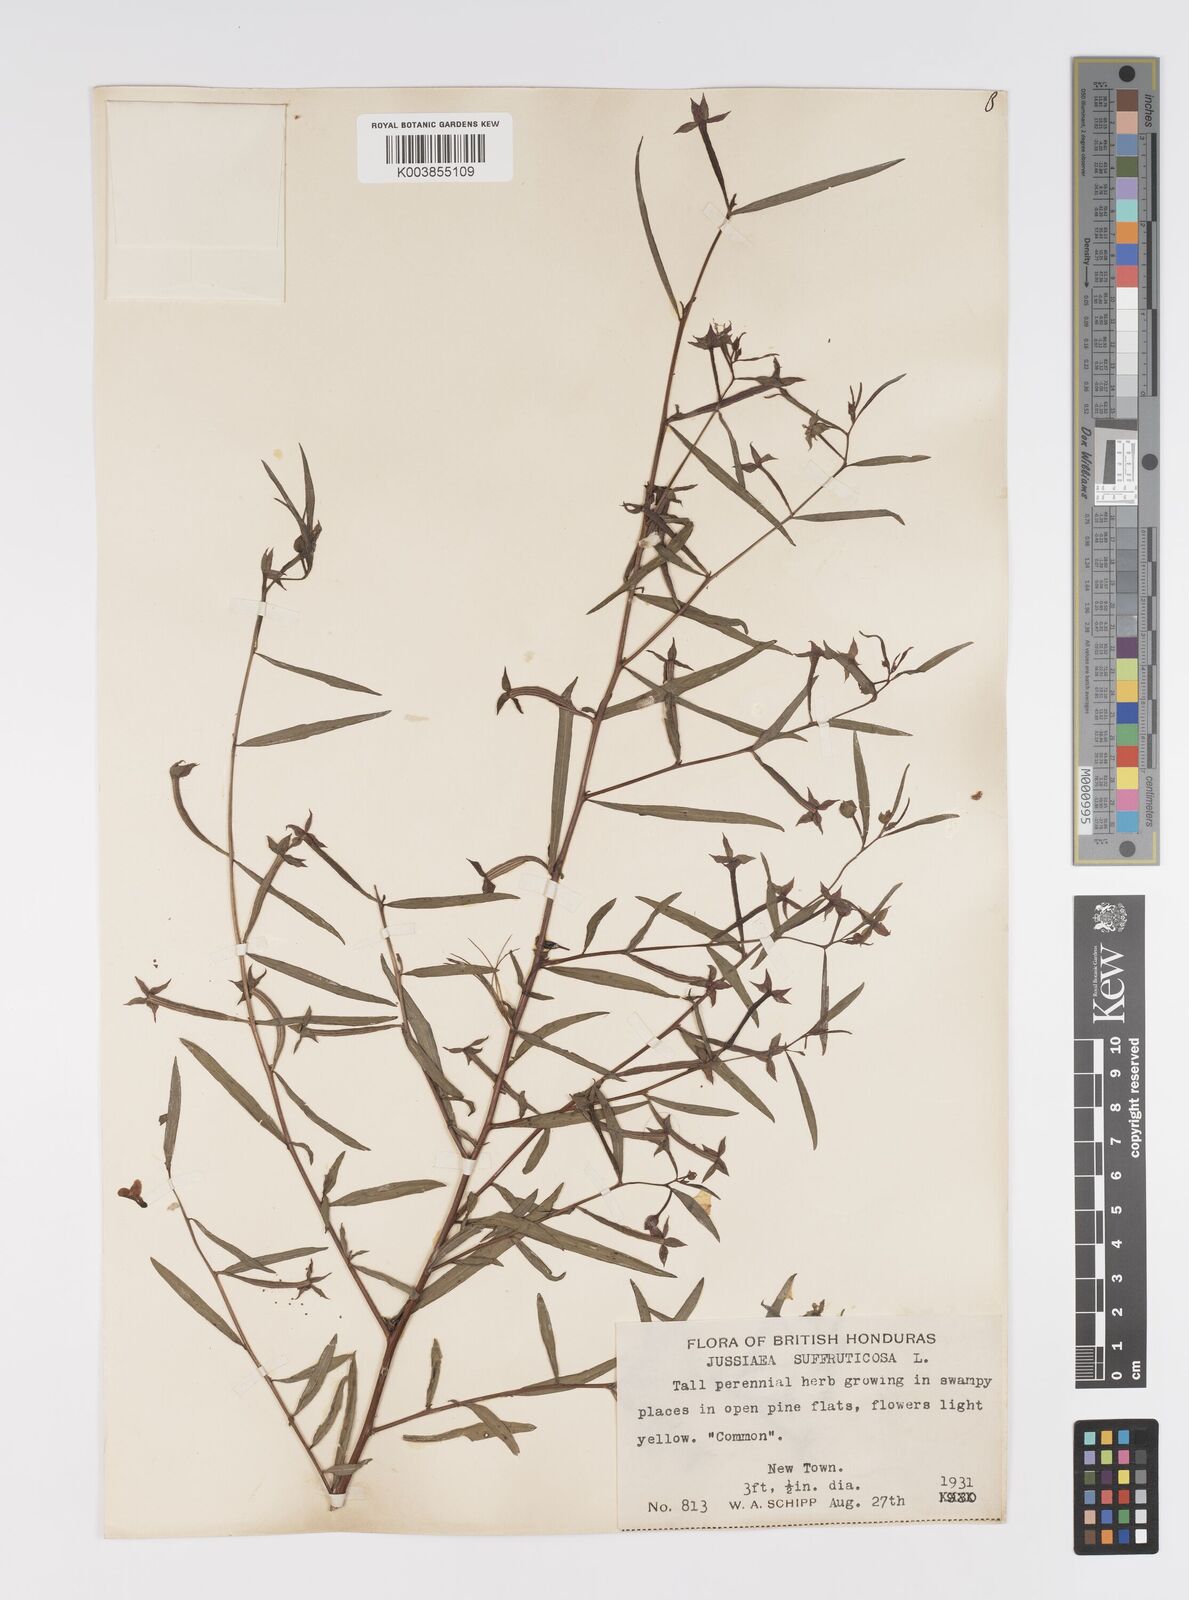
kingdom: Plantae
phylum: Tracheophyta
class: Magnoliopsida
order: Myrtales
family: Onagraceae
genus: Ludwigia
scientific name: Ludwigia octovalvis
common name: Water-primrose
